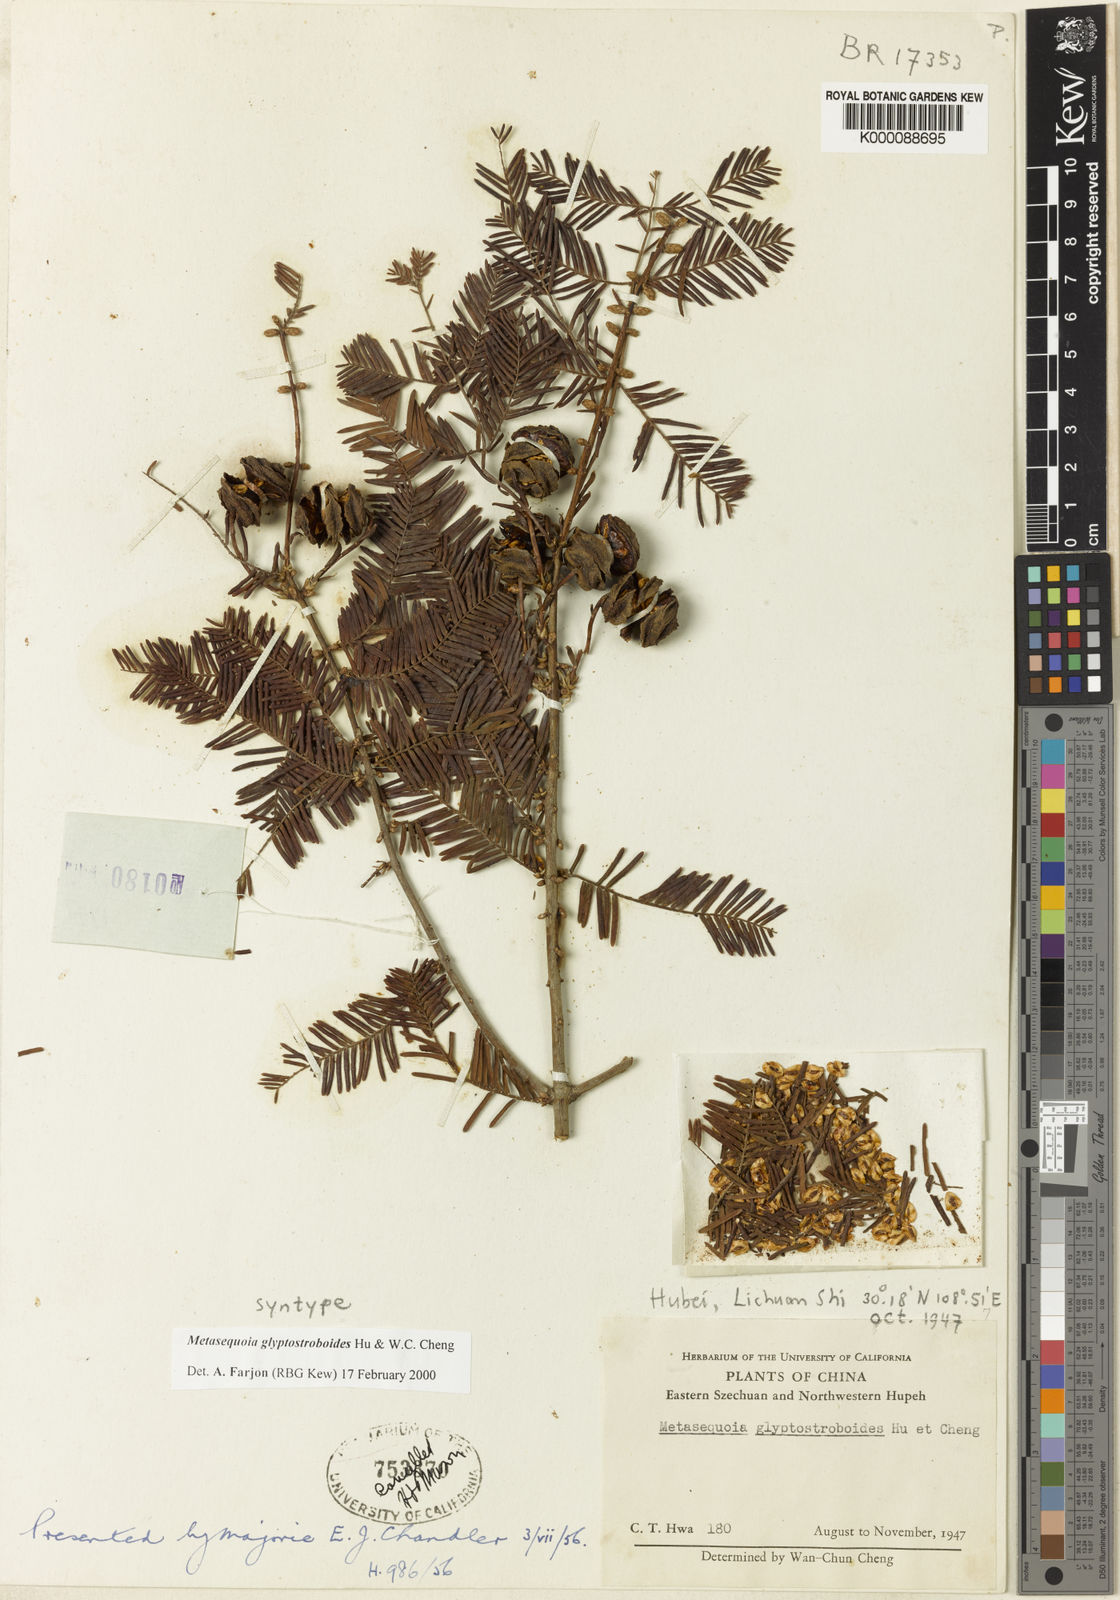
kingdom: Plantae
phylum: Tracheophyta
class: Pinopsida
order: Pinales
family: Cupressaceae
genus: Metasequoia
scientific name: Metasequoia glyptostroboides
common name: Dawn redwood
